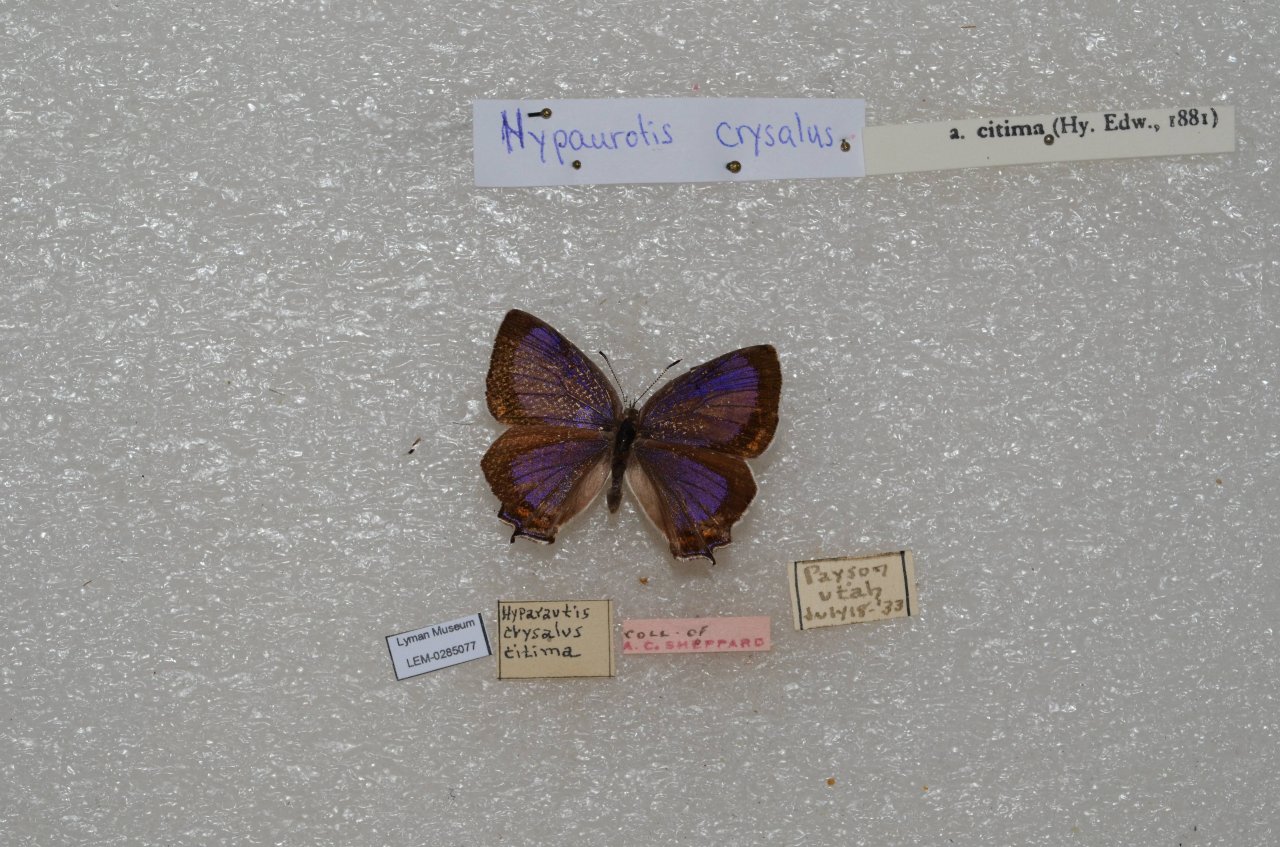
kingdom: Animalia
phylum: Arthropoda
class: Insecta
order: Lepidoptera
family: Lycaenidae
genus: Hypaurotis
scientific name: Hypaurotis crysalus
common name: Colorado Hairstreak
